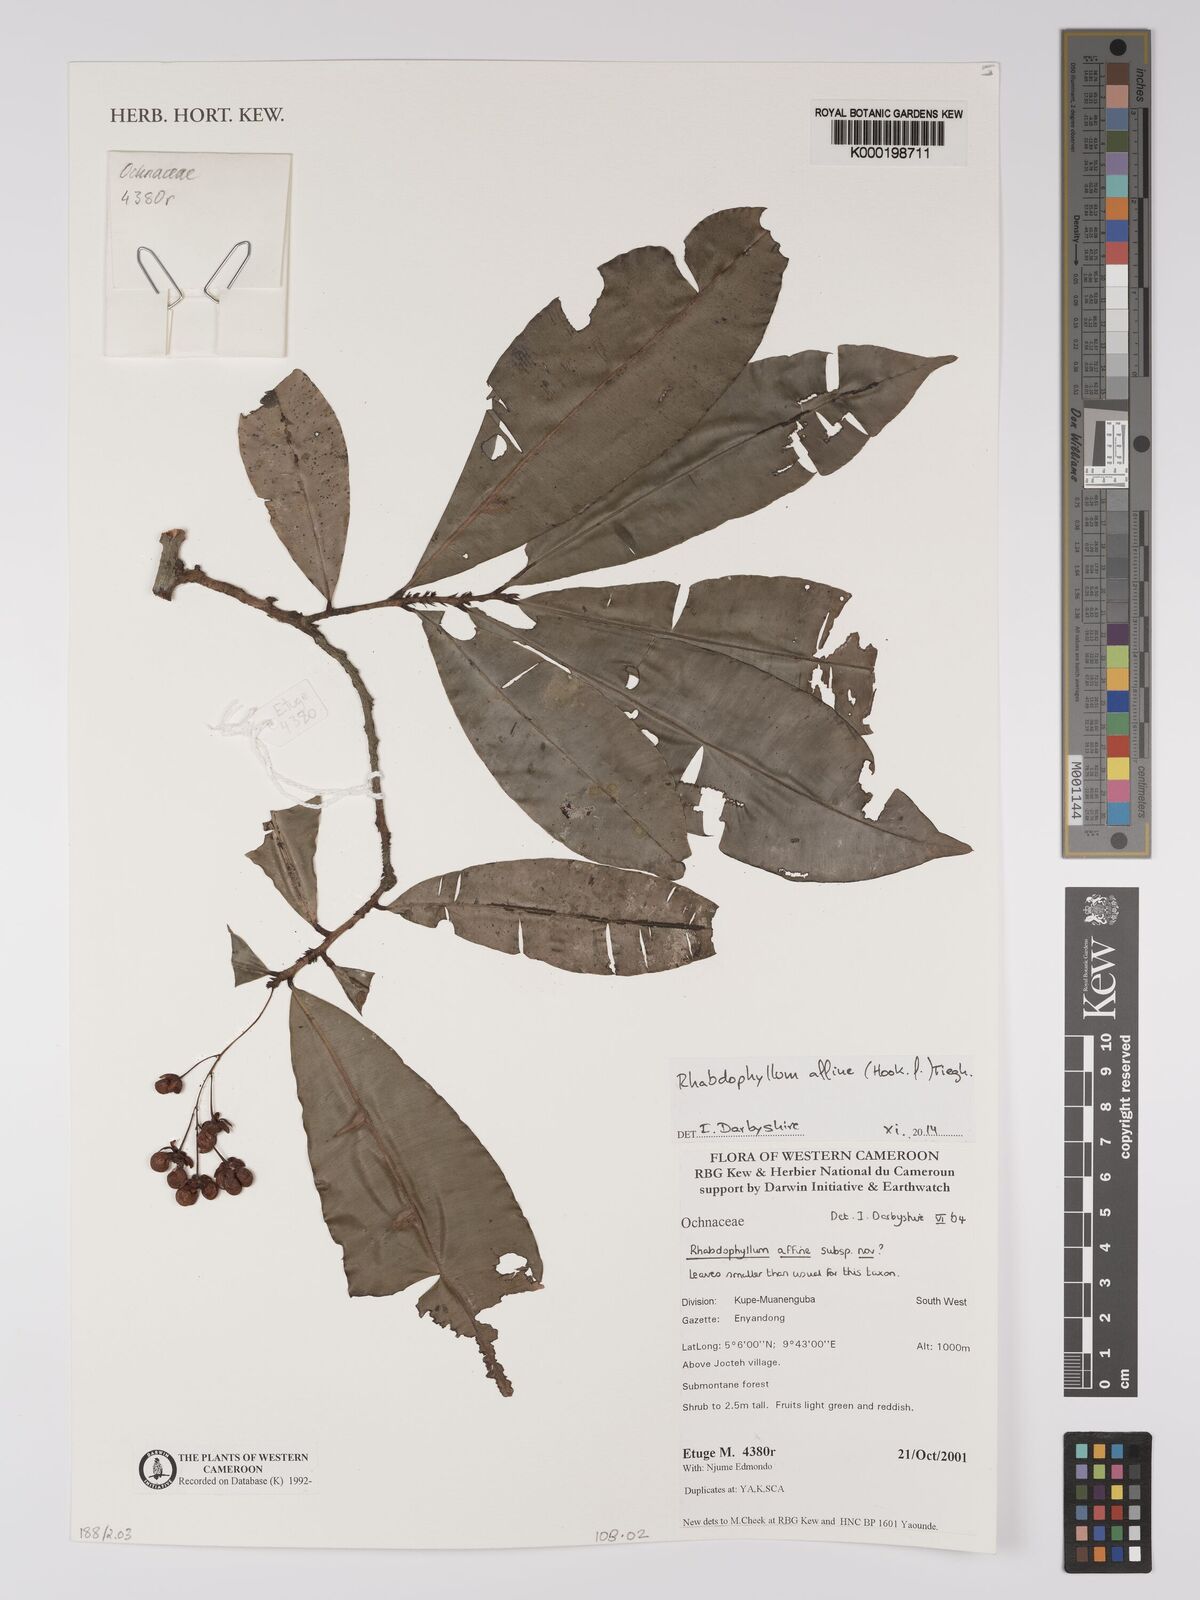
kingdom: Plantae
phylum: Tracheophyta
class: Magnoliopsida
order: Malpighiales
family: Ochnaceae
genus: Rhabdophyllum
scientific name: Rhabdophyllum affine
